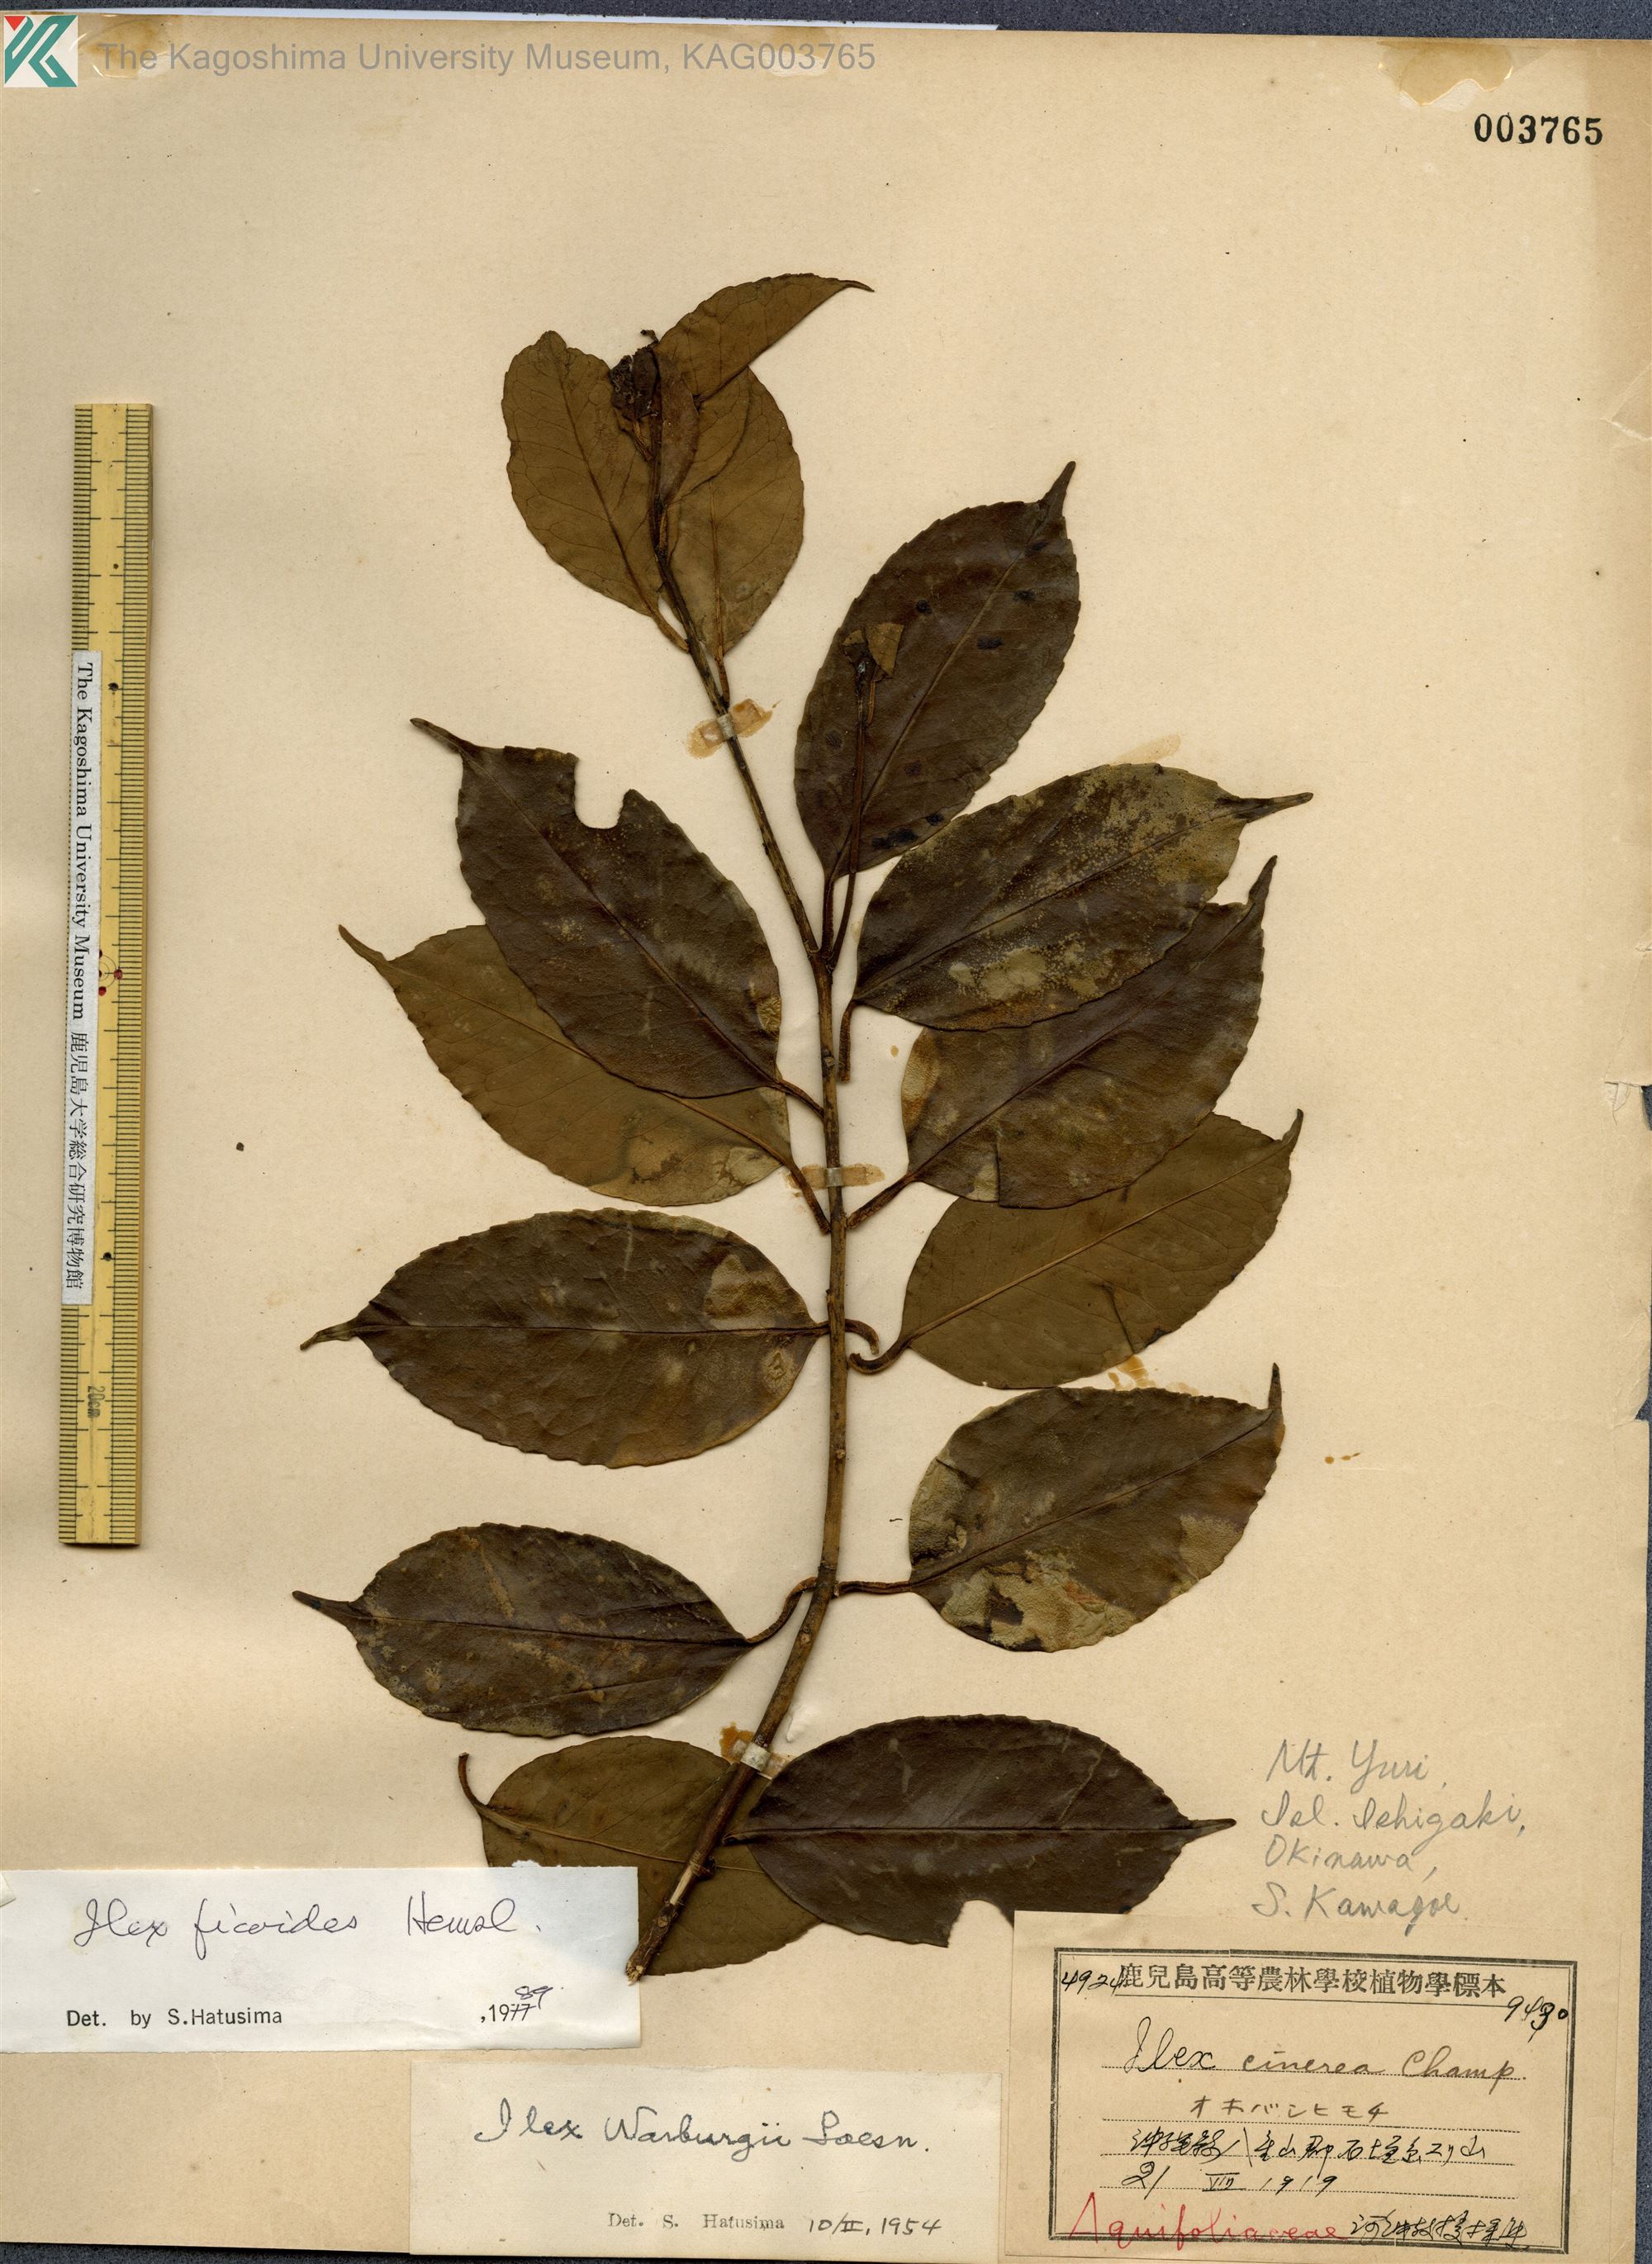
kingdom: Plantae
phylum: Tracheophyta
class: Magnoliopsida
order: Aquifoliales
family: Aquifoliaceae
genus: Ilex
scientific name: Ilex warburgii
